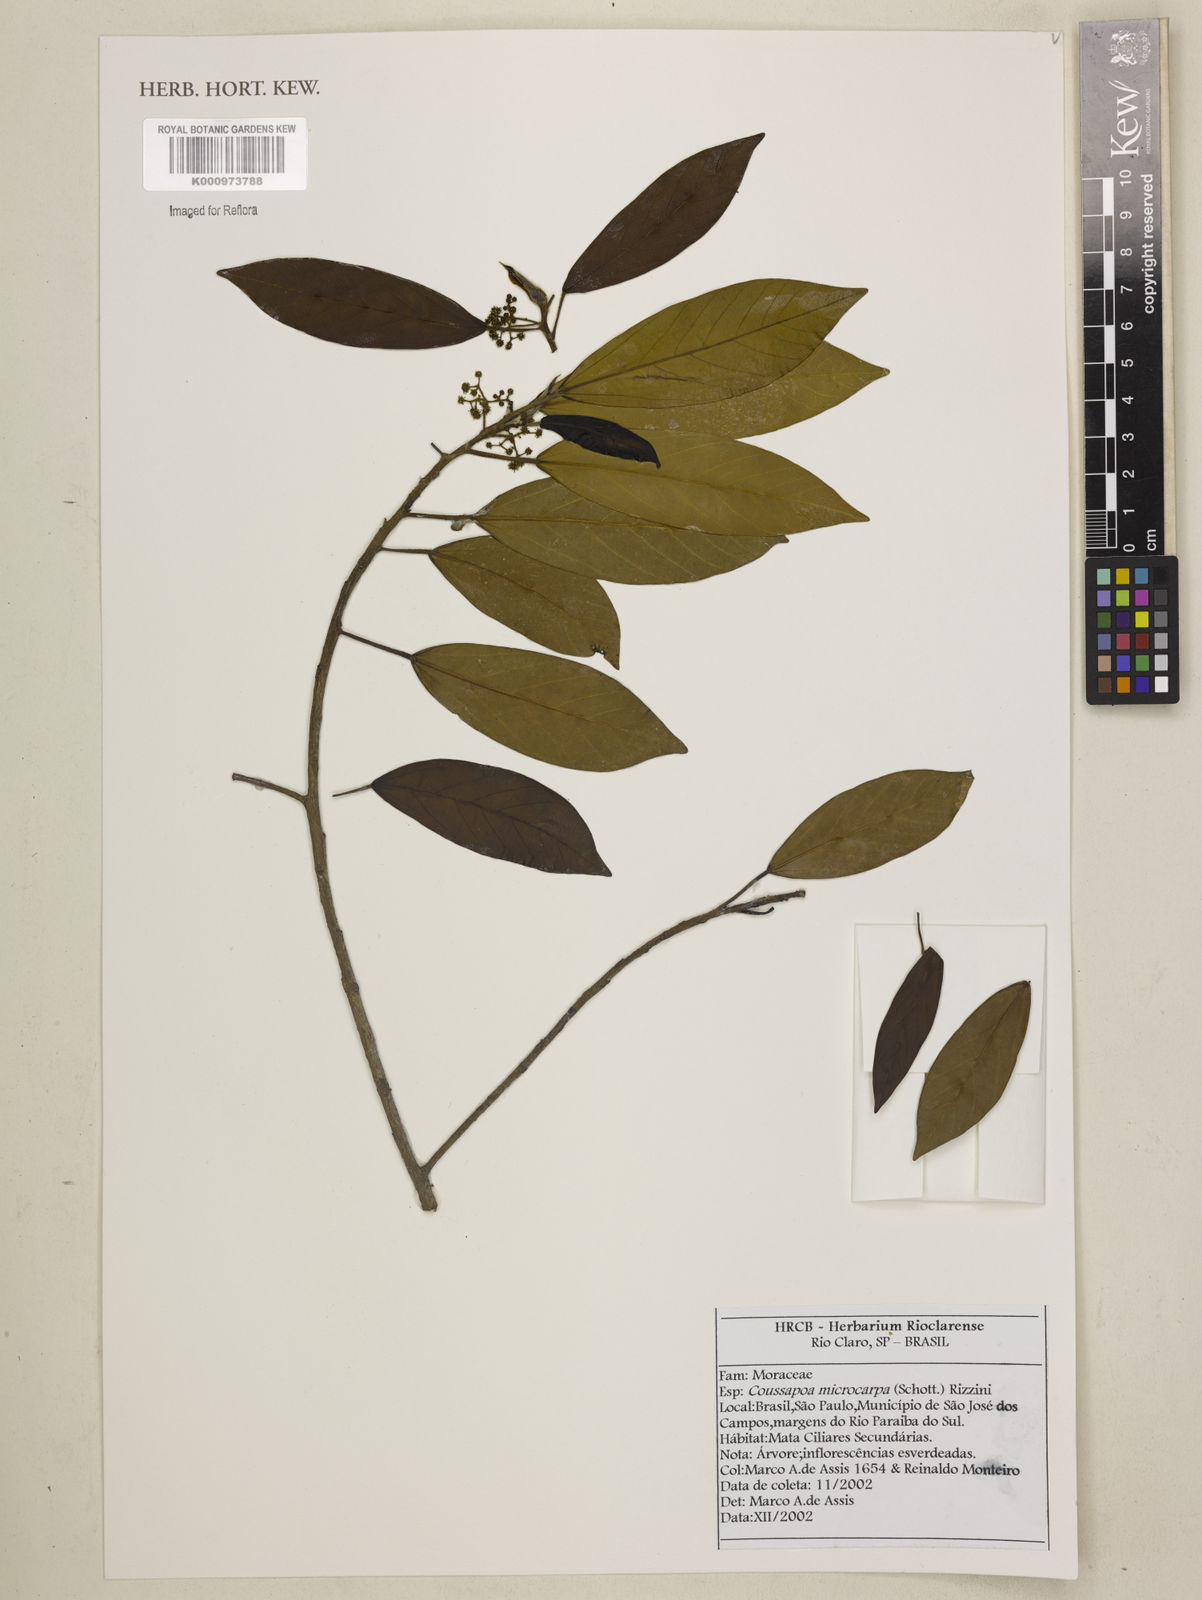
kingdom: Plantae
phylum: Tracheophyta
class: Magnoliopsida
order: Rosales
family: Urticaceae
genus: Coussapoa
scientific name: Coussapoa microcarpa
